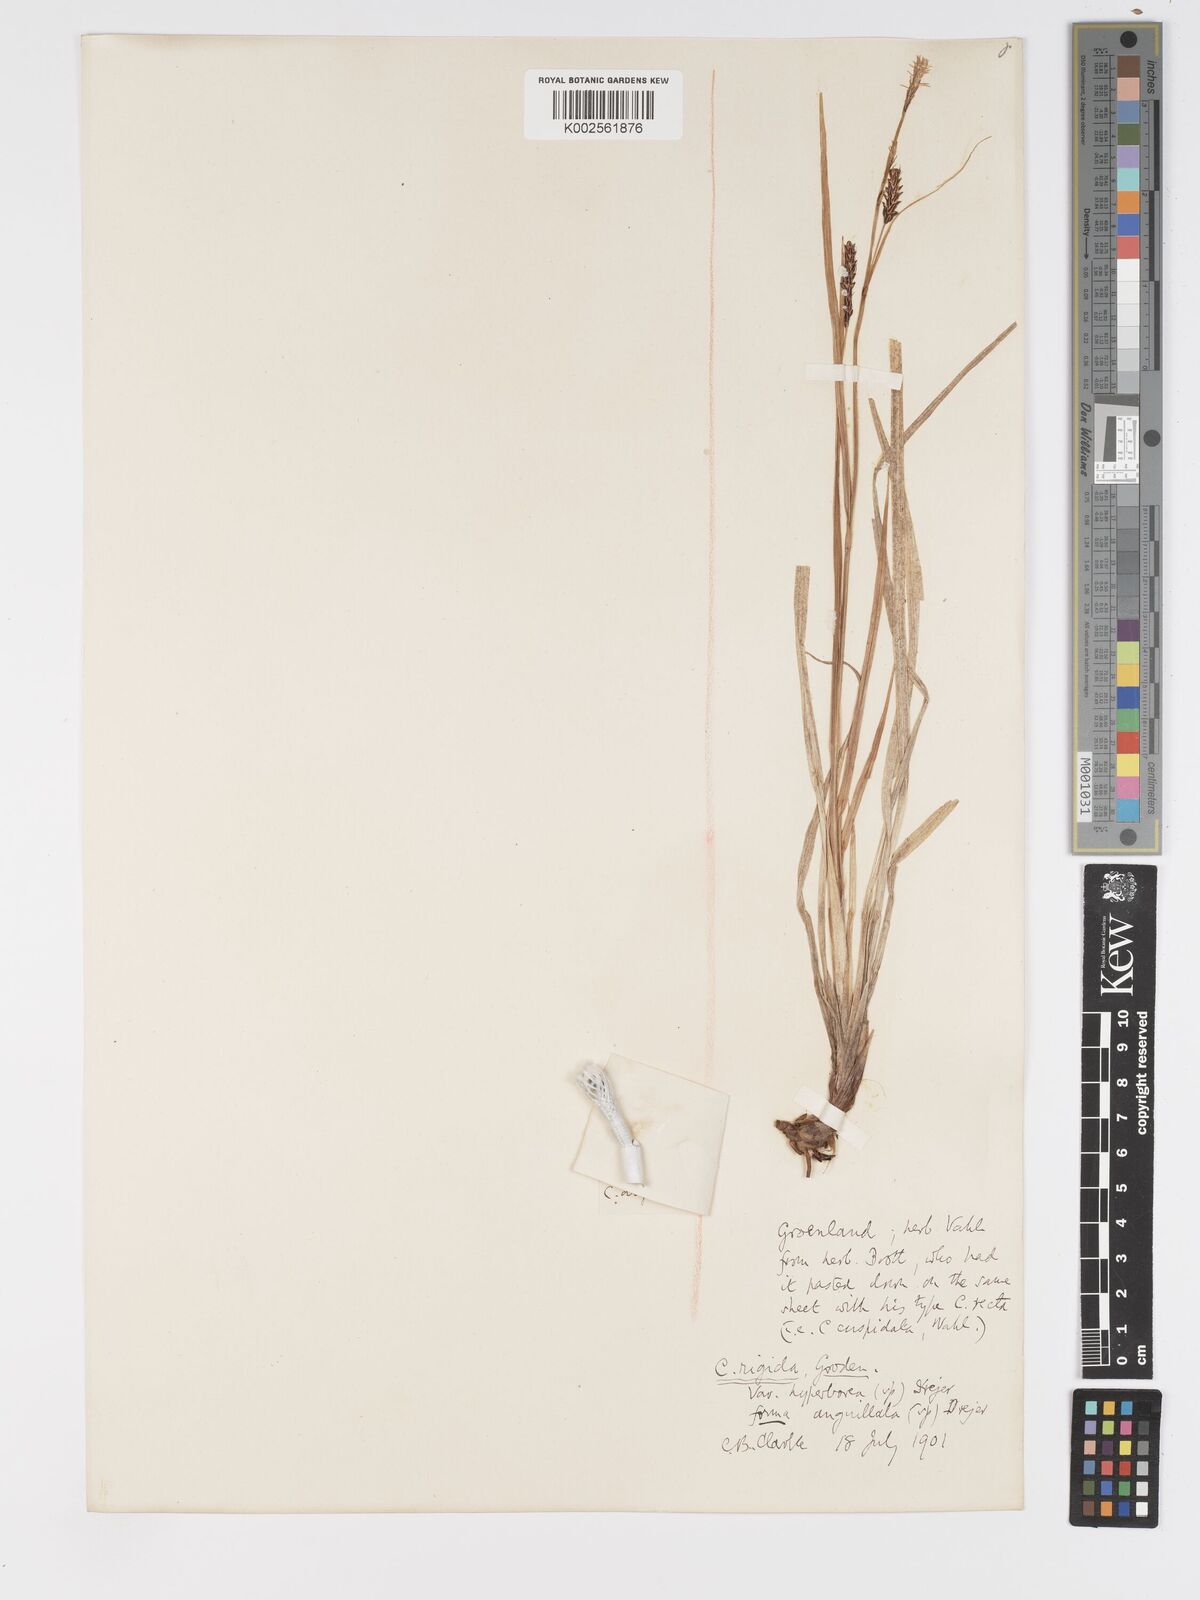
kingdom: Plantae
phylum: Tracheophyta
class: Liliopsida
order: Poales
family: Cyperaceae
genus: Carex
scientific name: Carex bigelowii
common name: Stiff sedge
